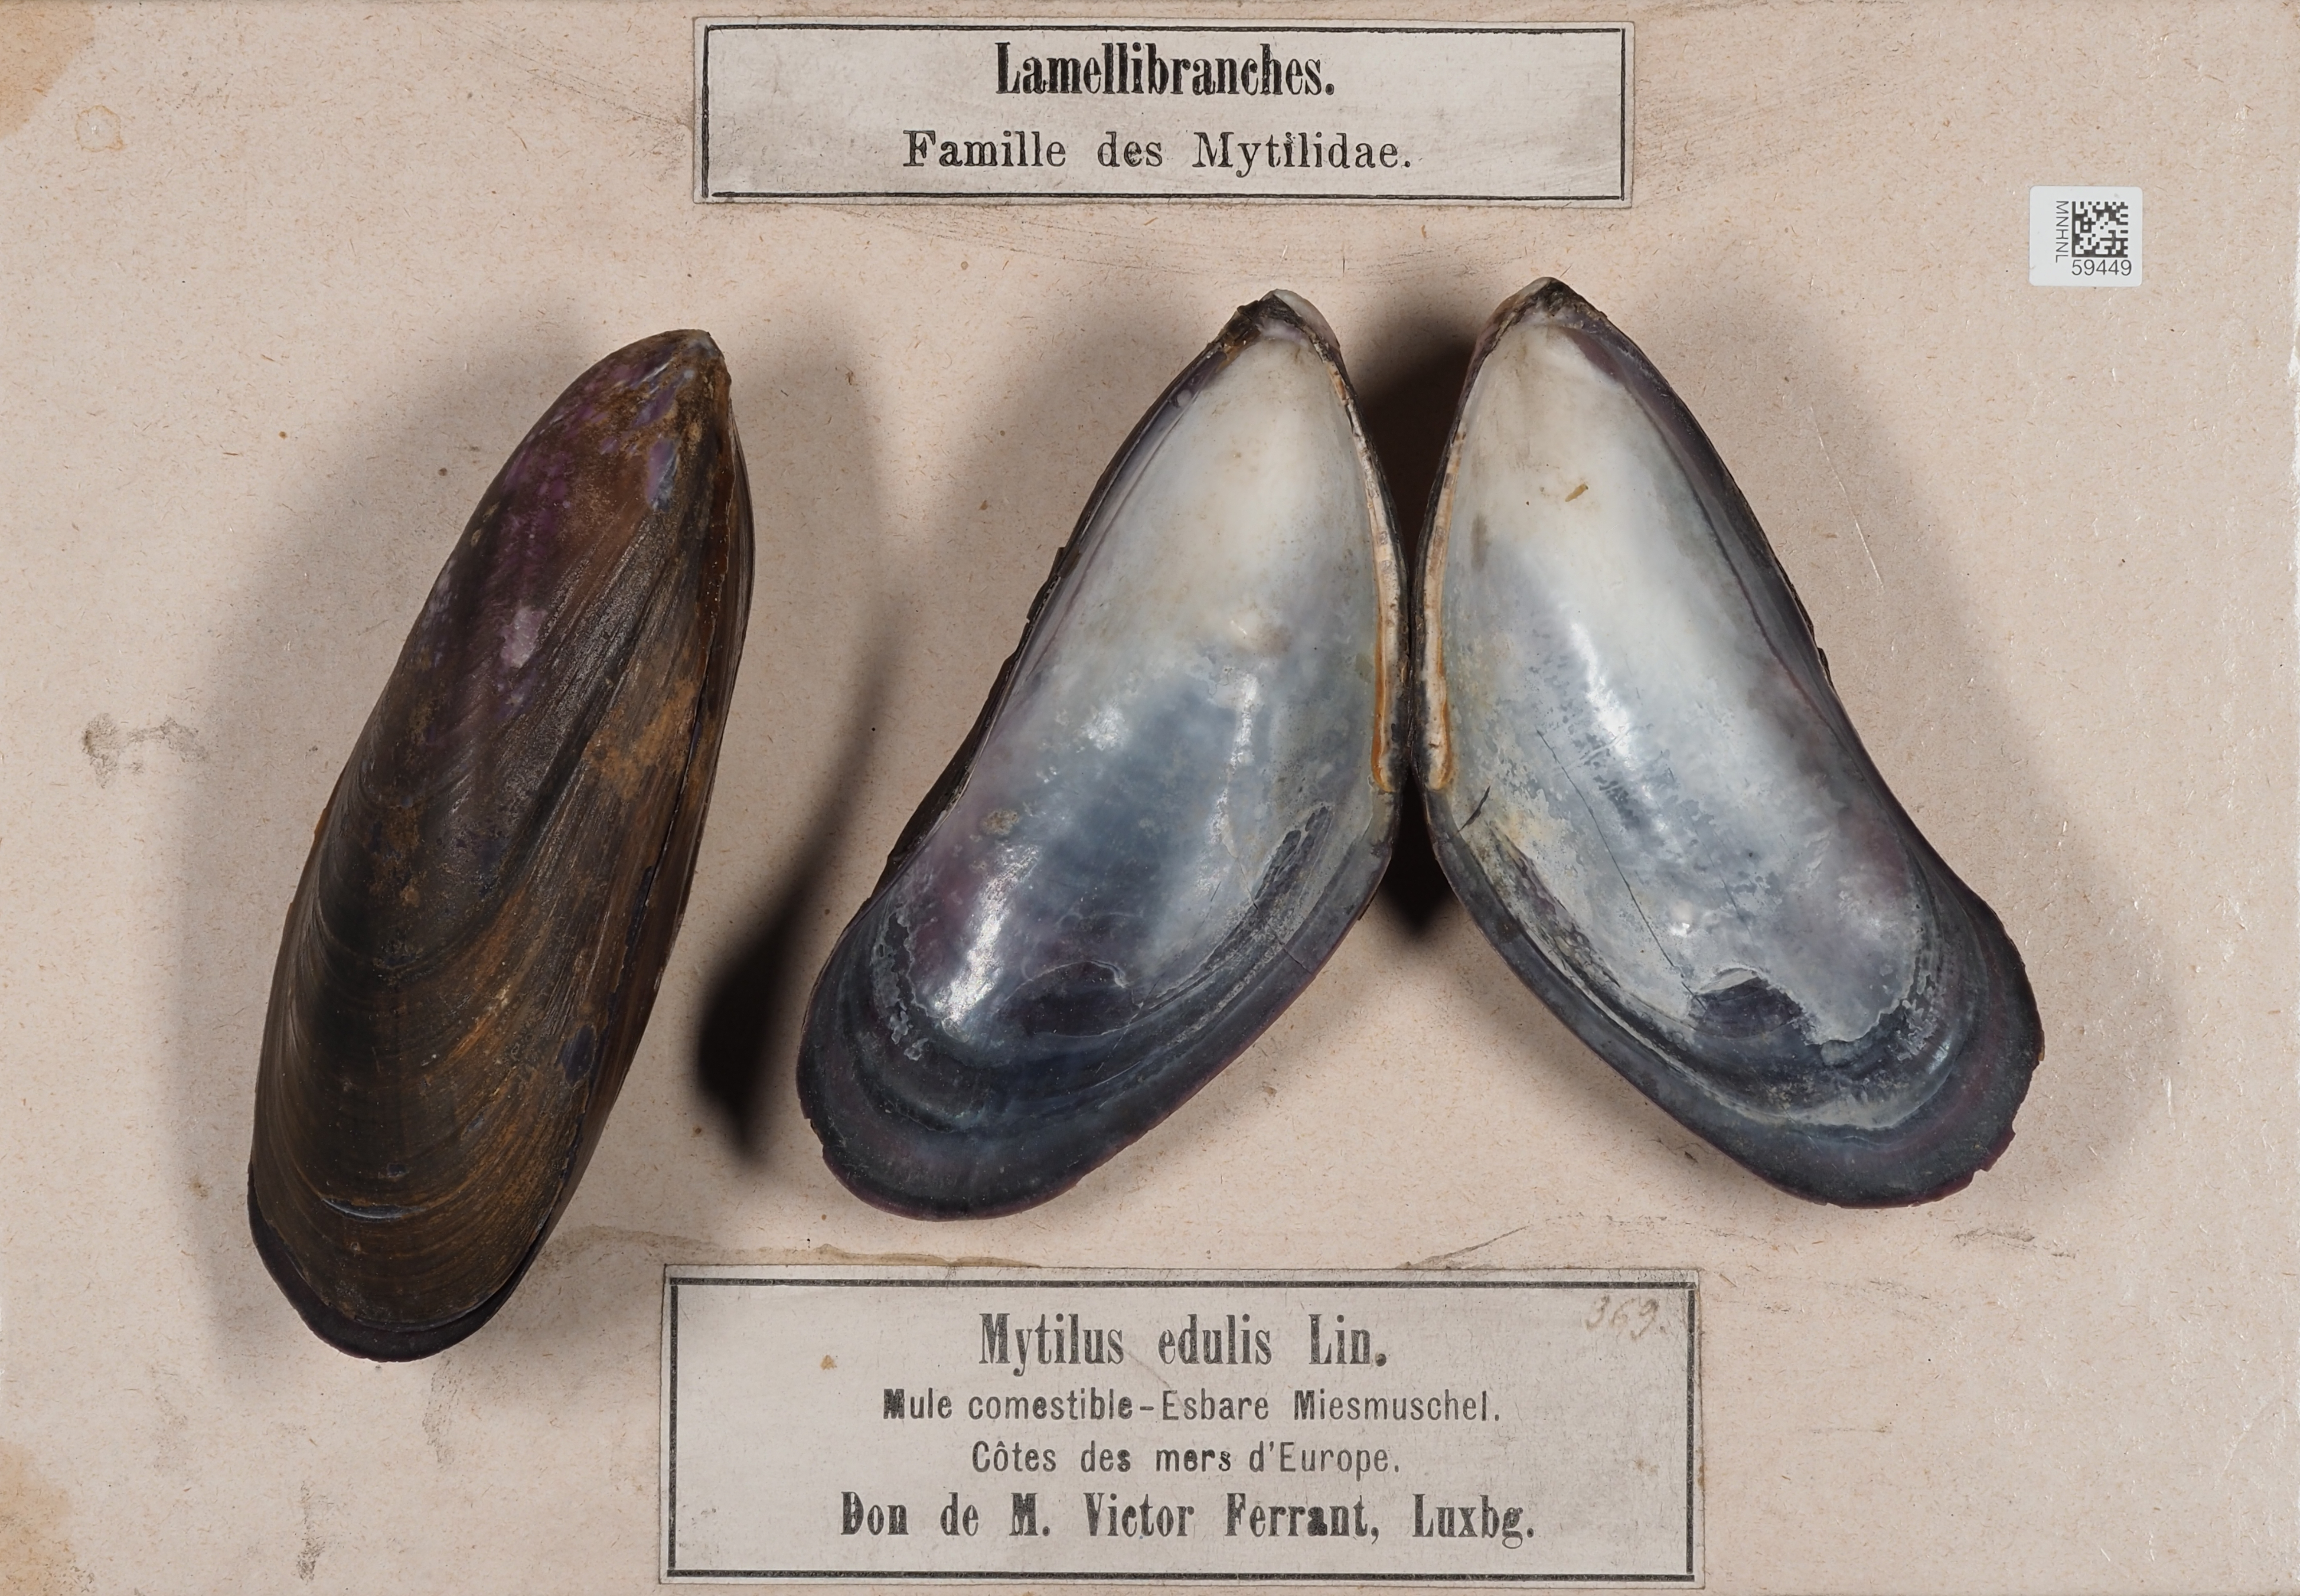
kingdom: Animalia
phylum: Mollusca
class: Bivalvia
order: Mytilida
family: Mytilidae
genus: Mytilus
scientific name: Mytilus edulis
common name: Blue mussel
